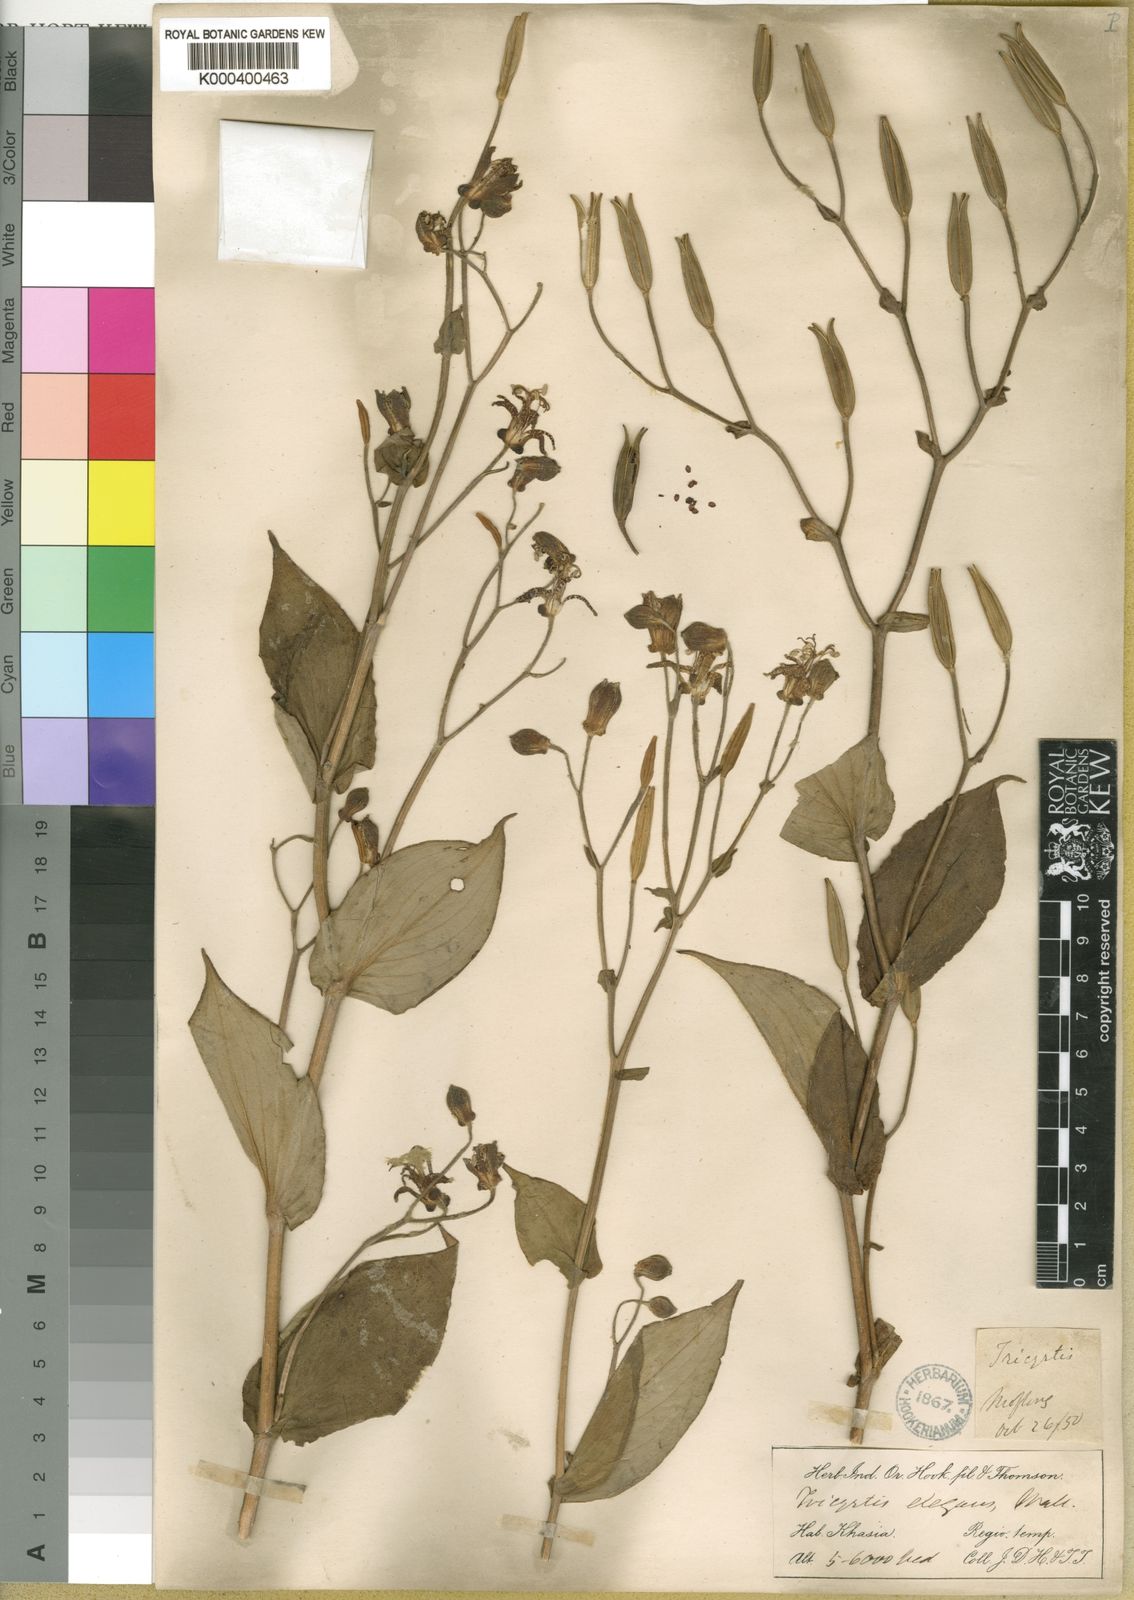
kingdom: Plantae
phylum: Tracheophyta
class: Liliopsida
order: Liliales
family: Liliaceae
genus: Tricyrtis
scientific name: Tricyrtis maculata
